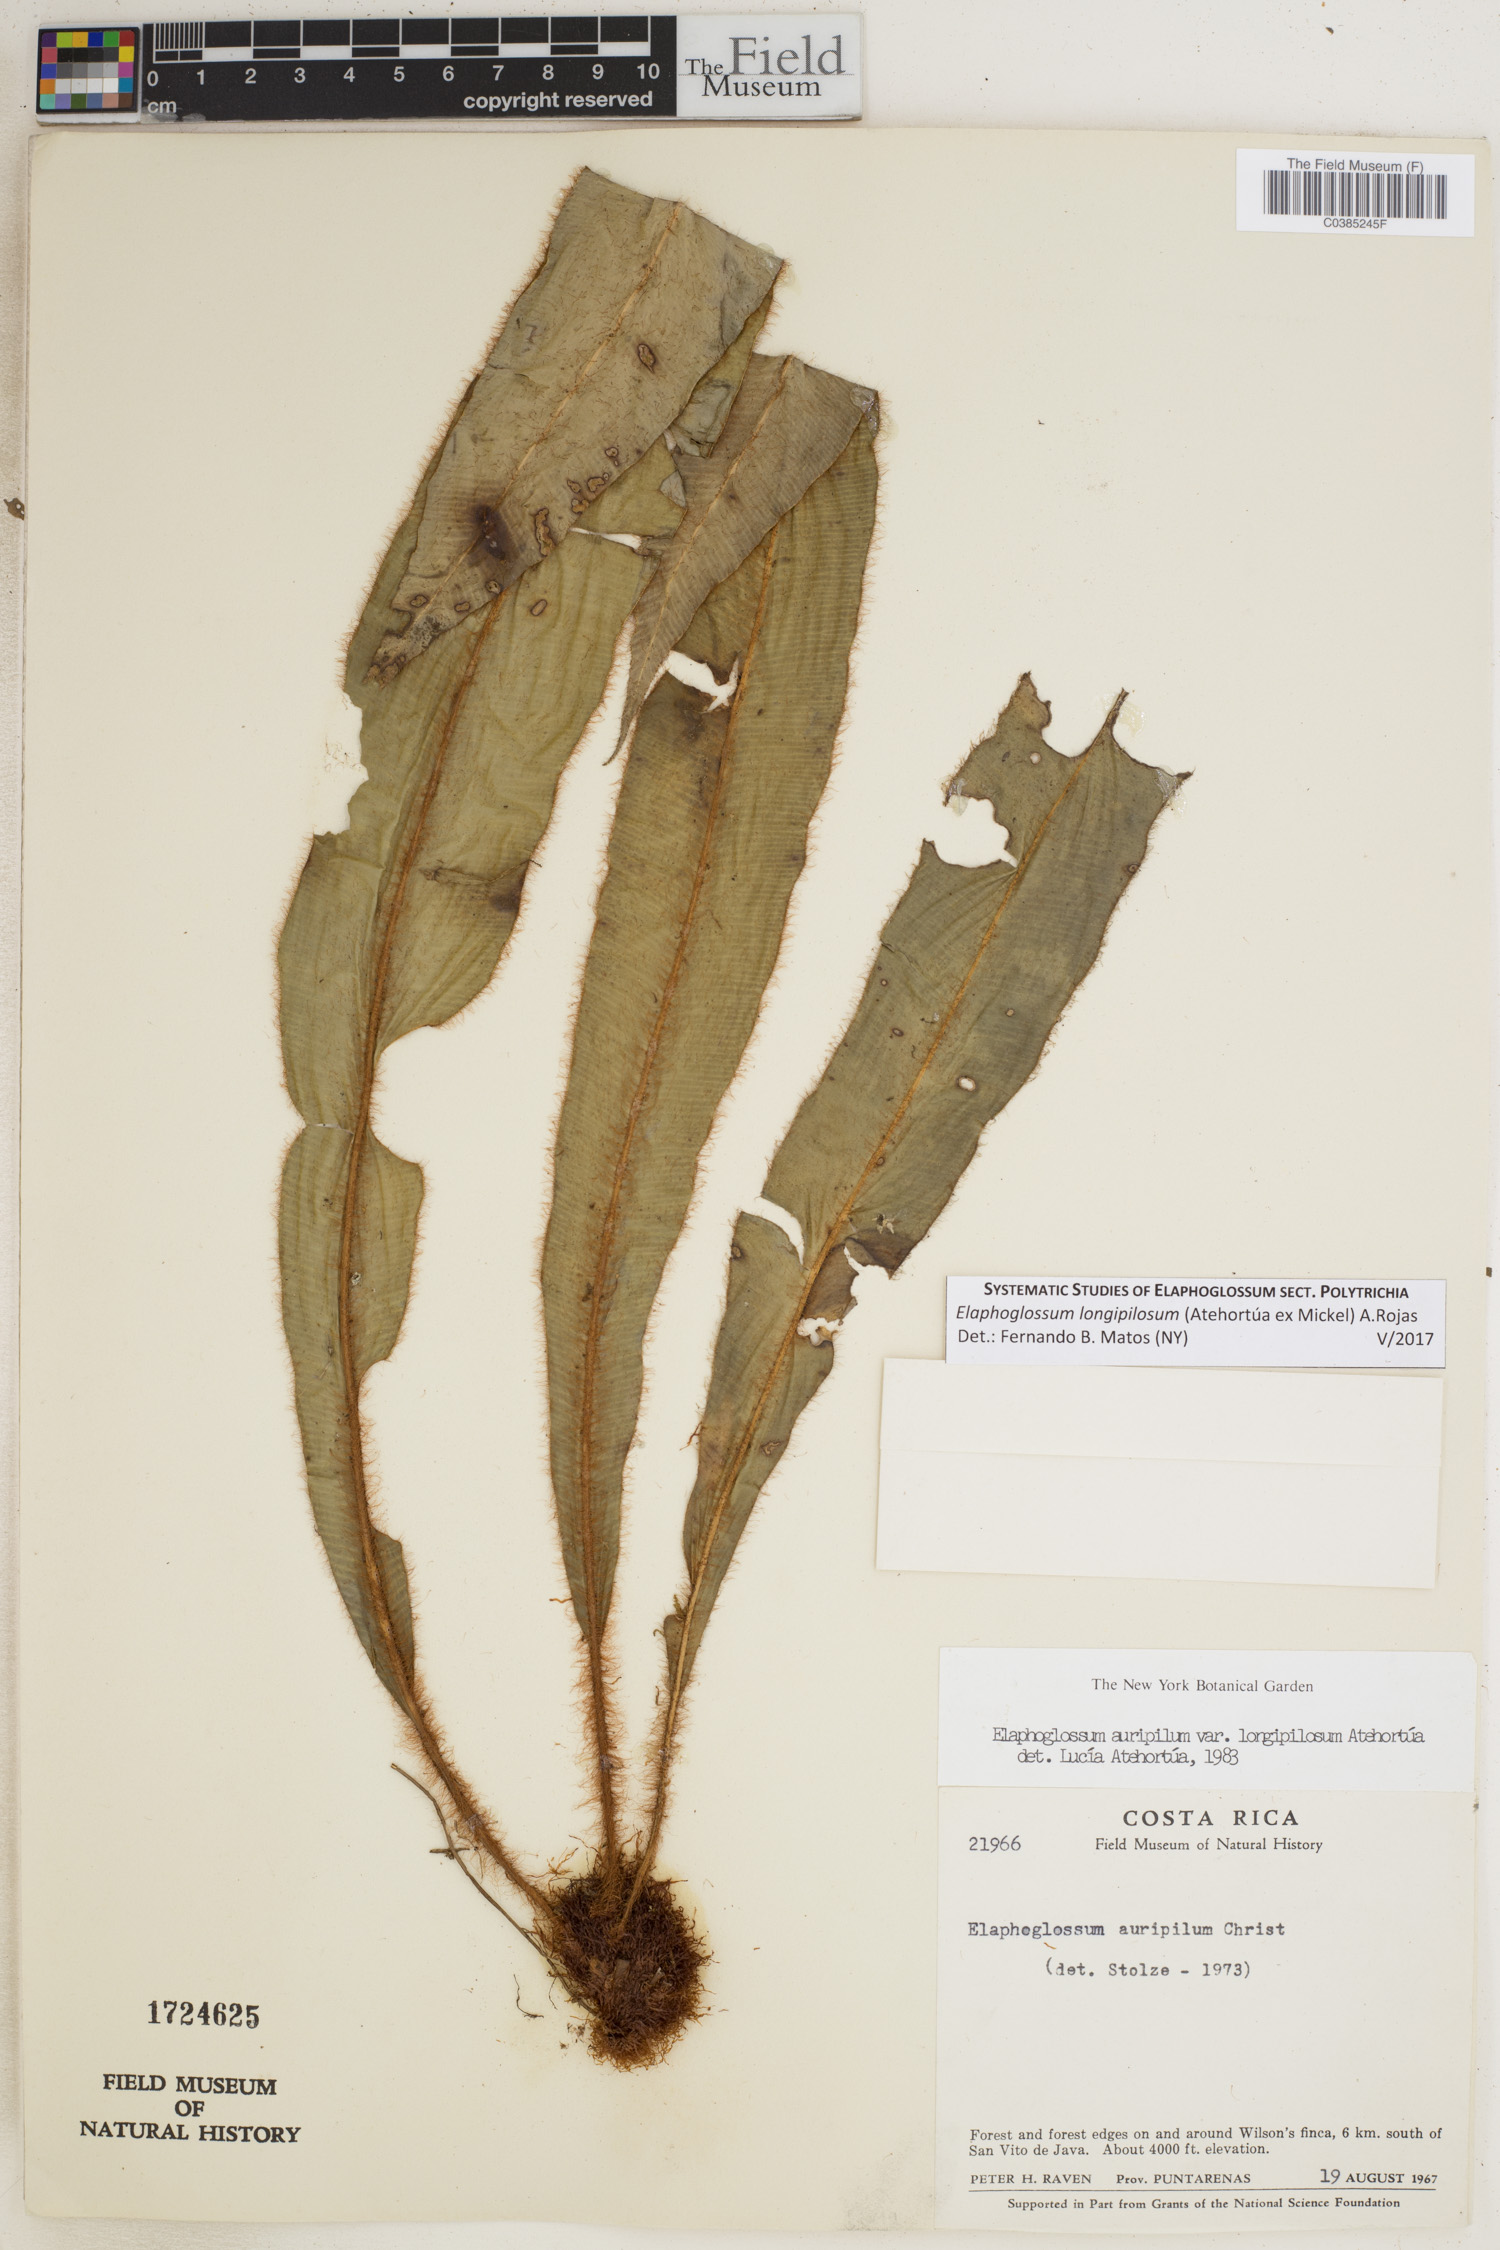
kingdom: Plantae
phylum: Tracheophyta
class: Polypodiopsida
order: Polypodiales
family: Dryopteridaceae
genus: Elaphoglossum
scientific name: Elaphoglossum longipilosum
